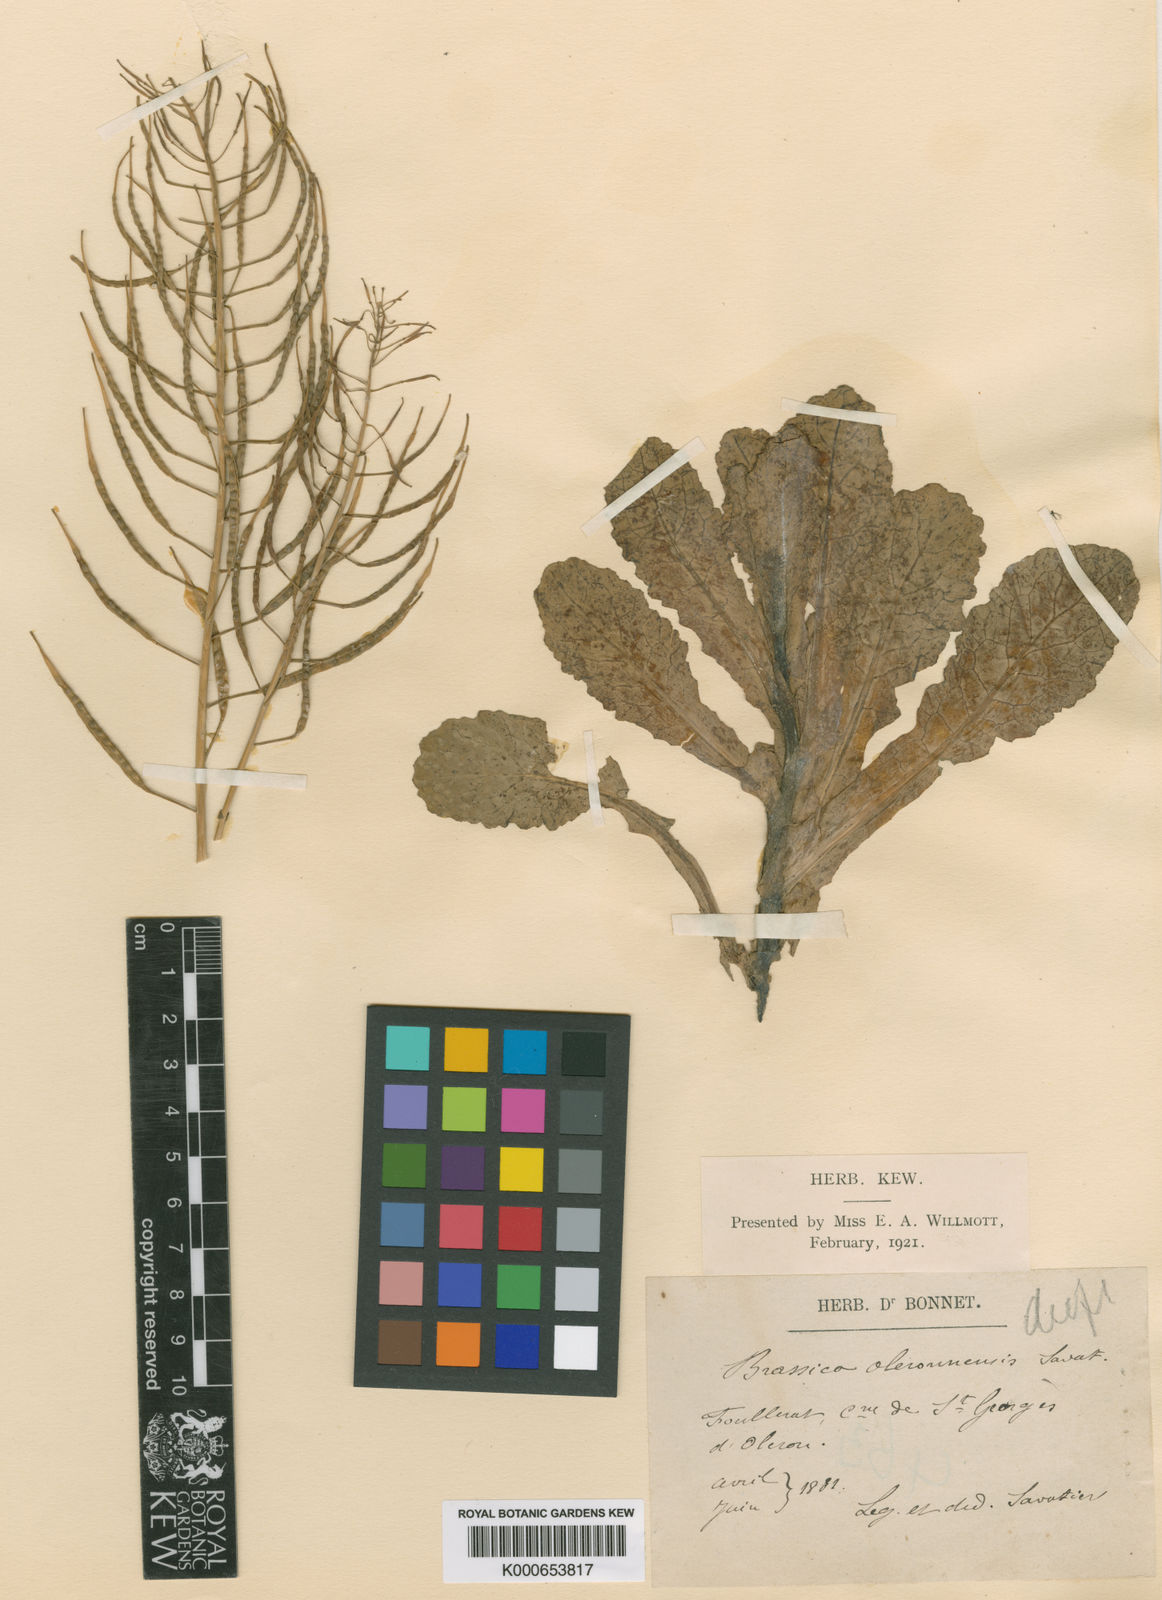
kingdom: Plantae
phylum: Tracheophyta
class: Magnoliopsida
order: Brassicales
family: Brassicaceae
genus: Brassica
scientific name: Brassica rapa
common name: Field mustard
